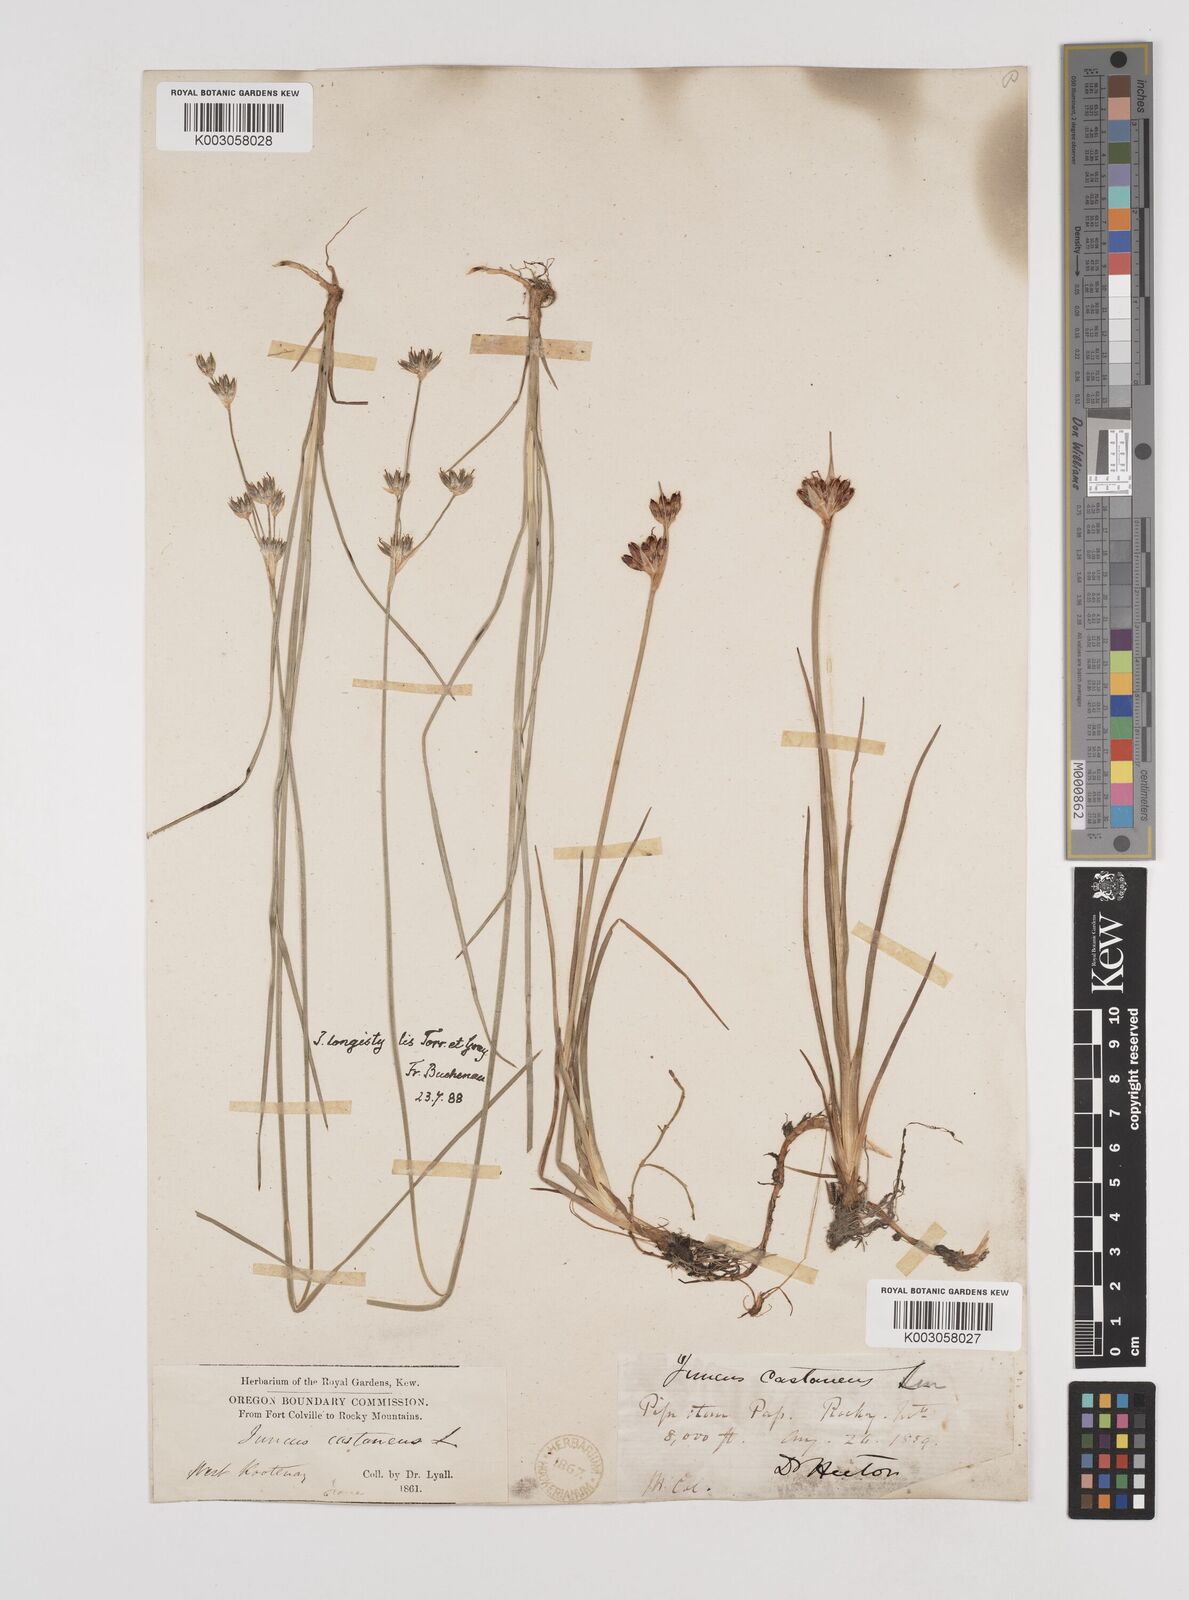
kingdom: Plantae
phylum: Tracheophyta
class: Liliopsida
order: Poales
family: Juncaceae
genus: Juncus
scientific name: Juncus longistylis
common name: Long-style rush
